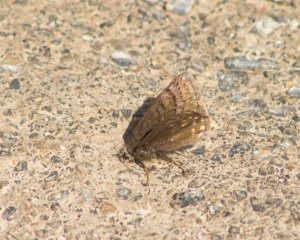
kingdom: Animalia
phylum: Arthropoda
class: Insecta
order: Lepidoptera
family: Hesperiidae
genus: Erynnis
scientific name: Erynnis brizo
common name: Sleepy Duskywing
